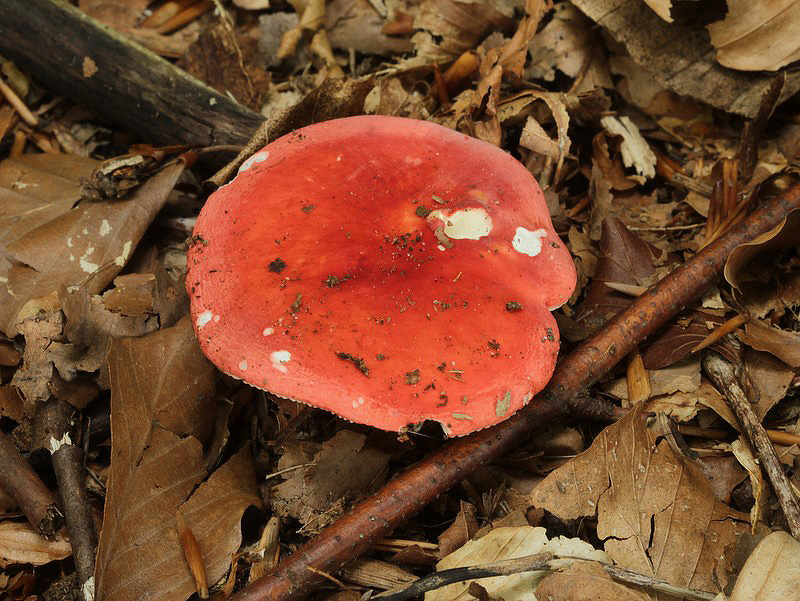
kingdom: Fungi
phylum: Basidiomycota
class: Agaricomycetes
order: Russulales
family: Russulaceae
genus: Russula
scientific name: Russula rosea
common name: fastkødet skørhat
